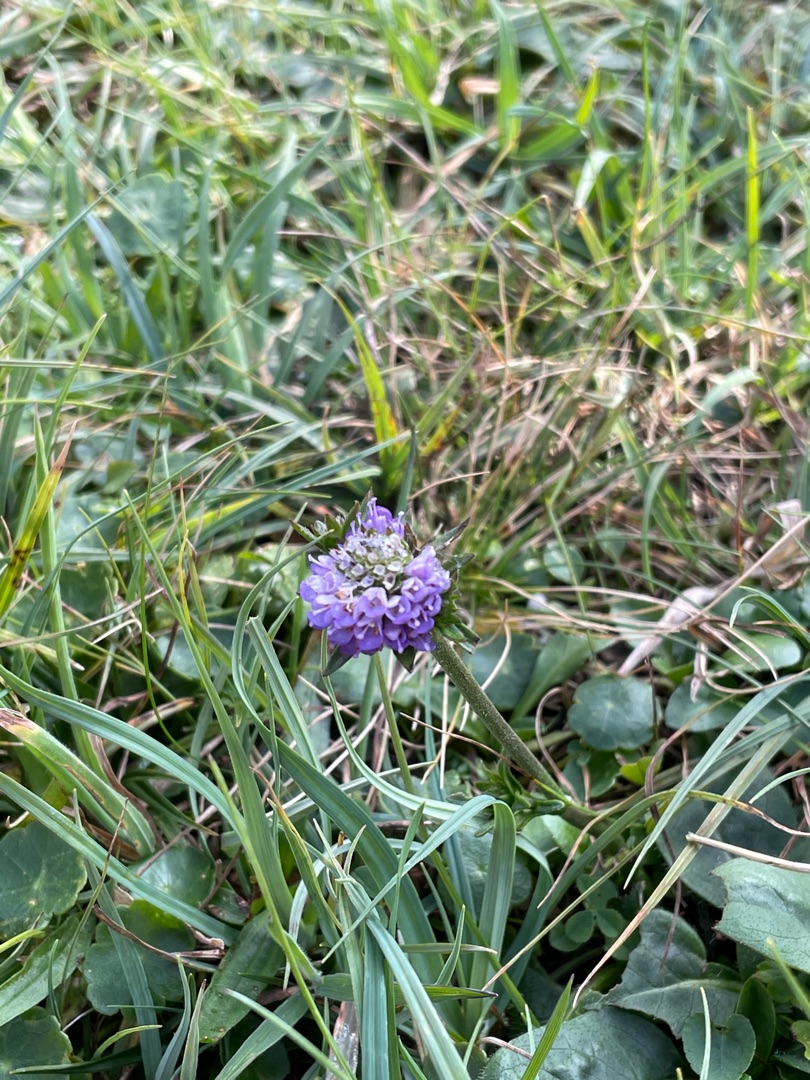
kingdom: Plantae
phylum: Tracheophyta
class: Magnoliopsida
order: Dipsacales
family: Caprifoliaceae
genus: Succisa
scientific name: Succisa pratensis
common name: Djævelsbid
